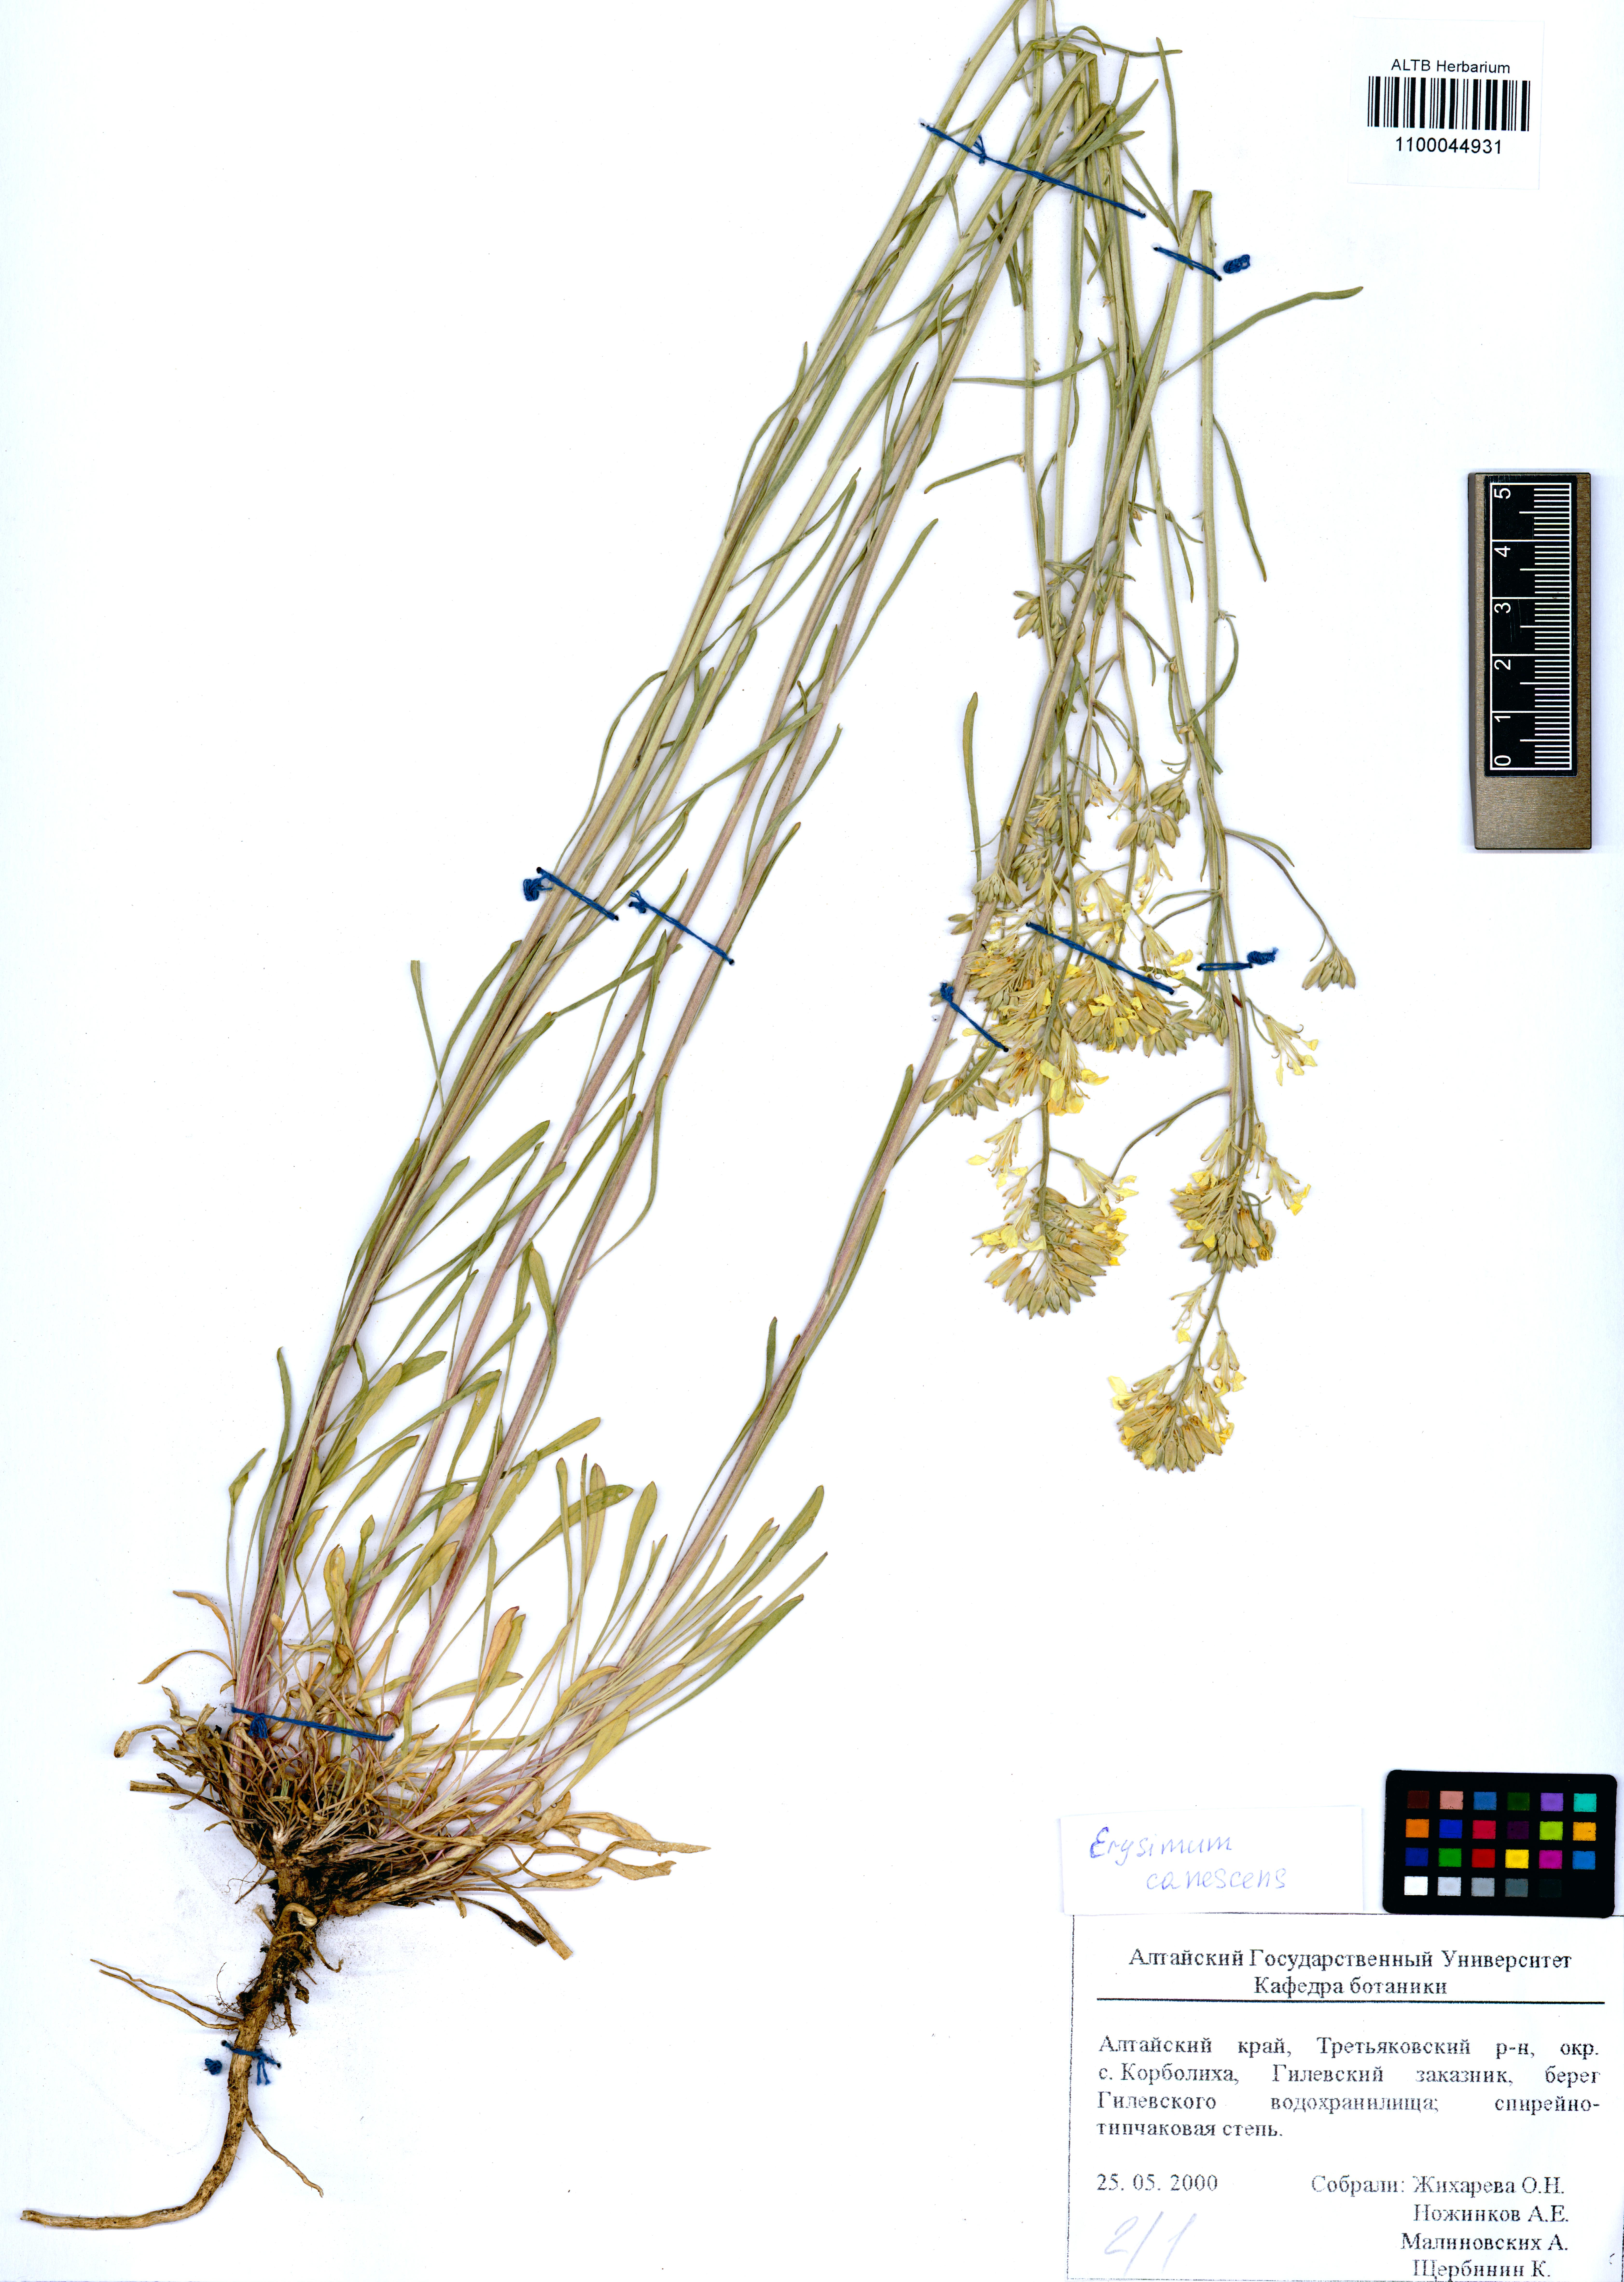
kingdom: Plantae
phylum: Tracheophyta
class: Magnoliopsida
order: Brassicales
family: Brassicaceae
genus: Erysimum
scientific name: Erysimum canescens
